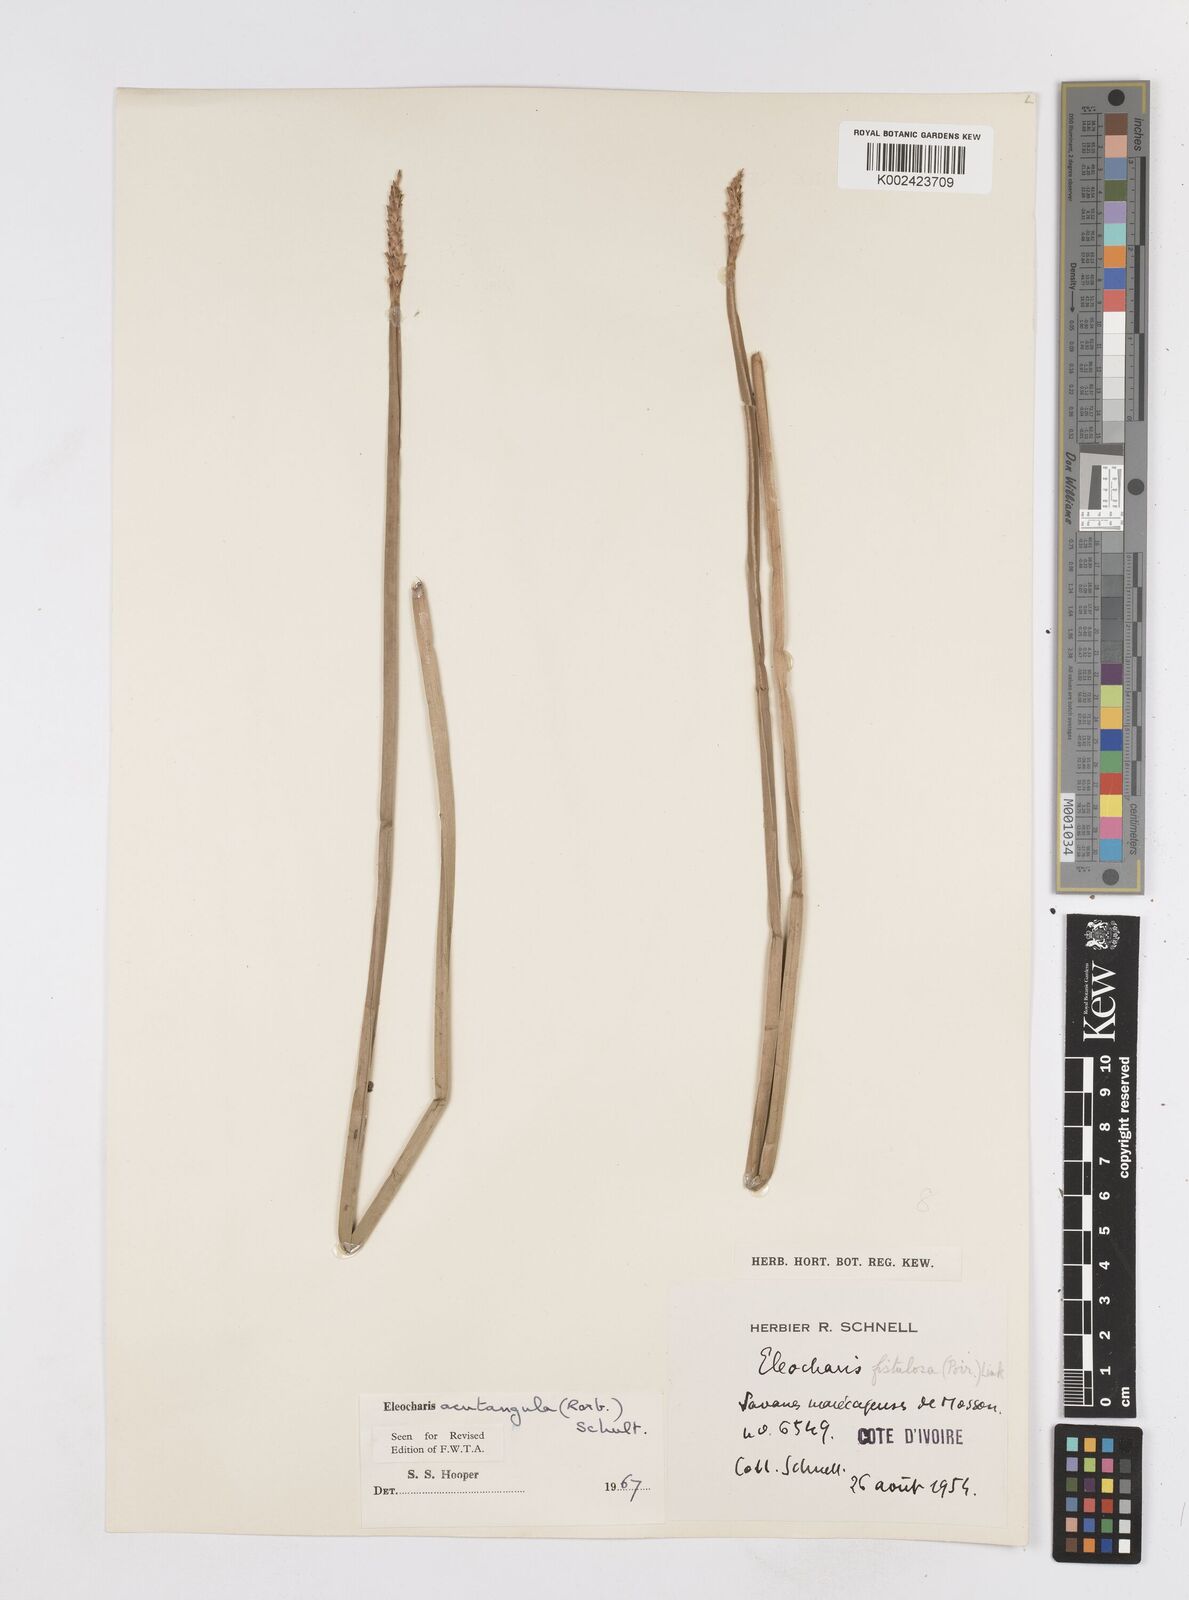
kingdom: Plantae
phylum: Tracheophyta
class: Liliopsida
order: Poales
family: Cyperaceae
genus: Eleocharis
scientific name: Eleocharis acutangula
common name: Acute spikerush
